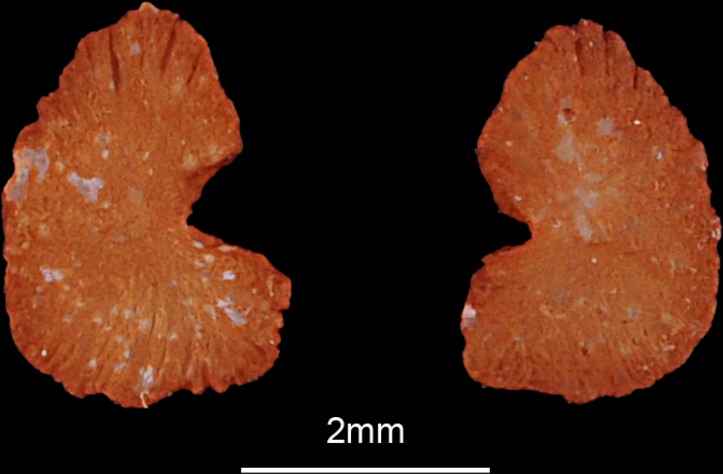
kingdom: Animalia
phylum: Chordata
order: Characiformes
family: Alestidae
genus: Hydrocynus
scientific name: Hydrocynus brevis
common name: Tiger fish
